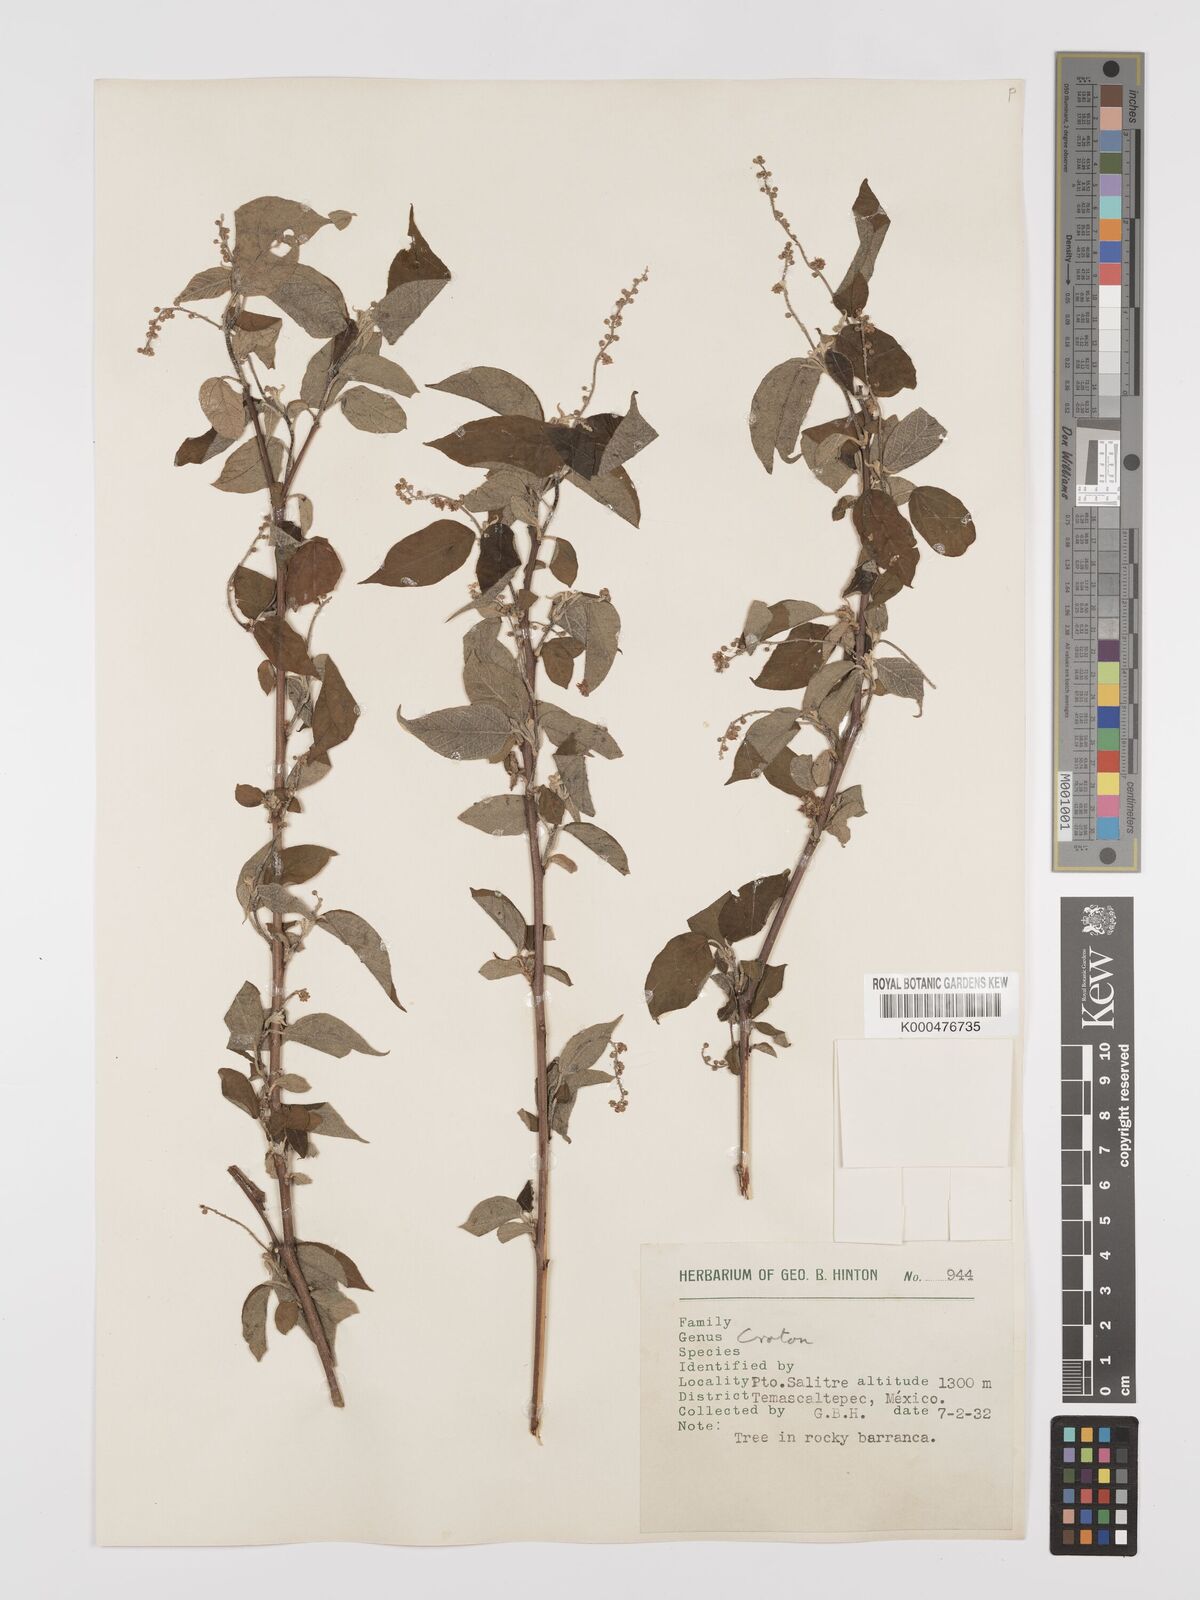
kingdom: Plantae
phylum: Tracheophyta
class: Magnoliopsida
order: Malpighiales
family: Euphorbiaceae
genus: Croton
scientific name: Croton
